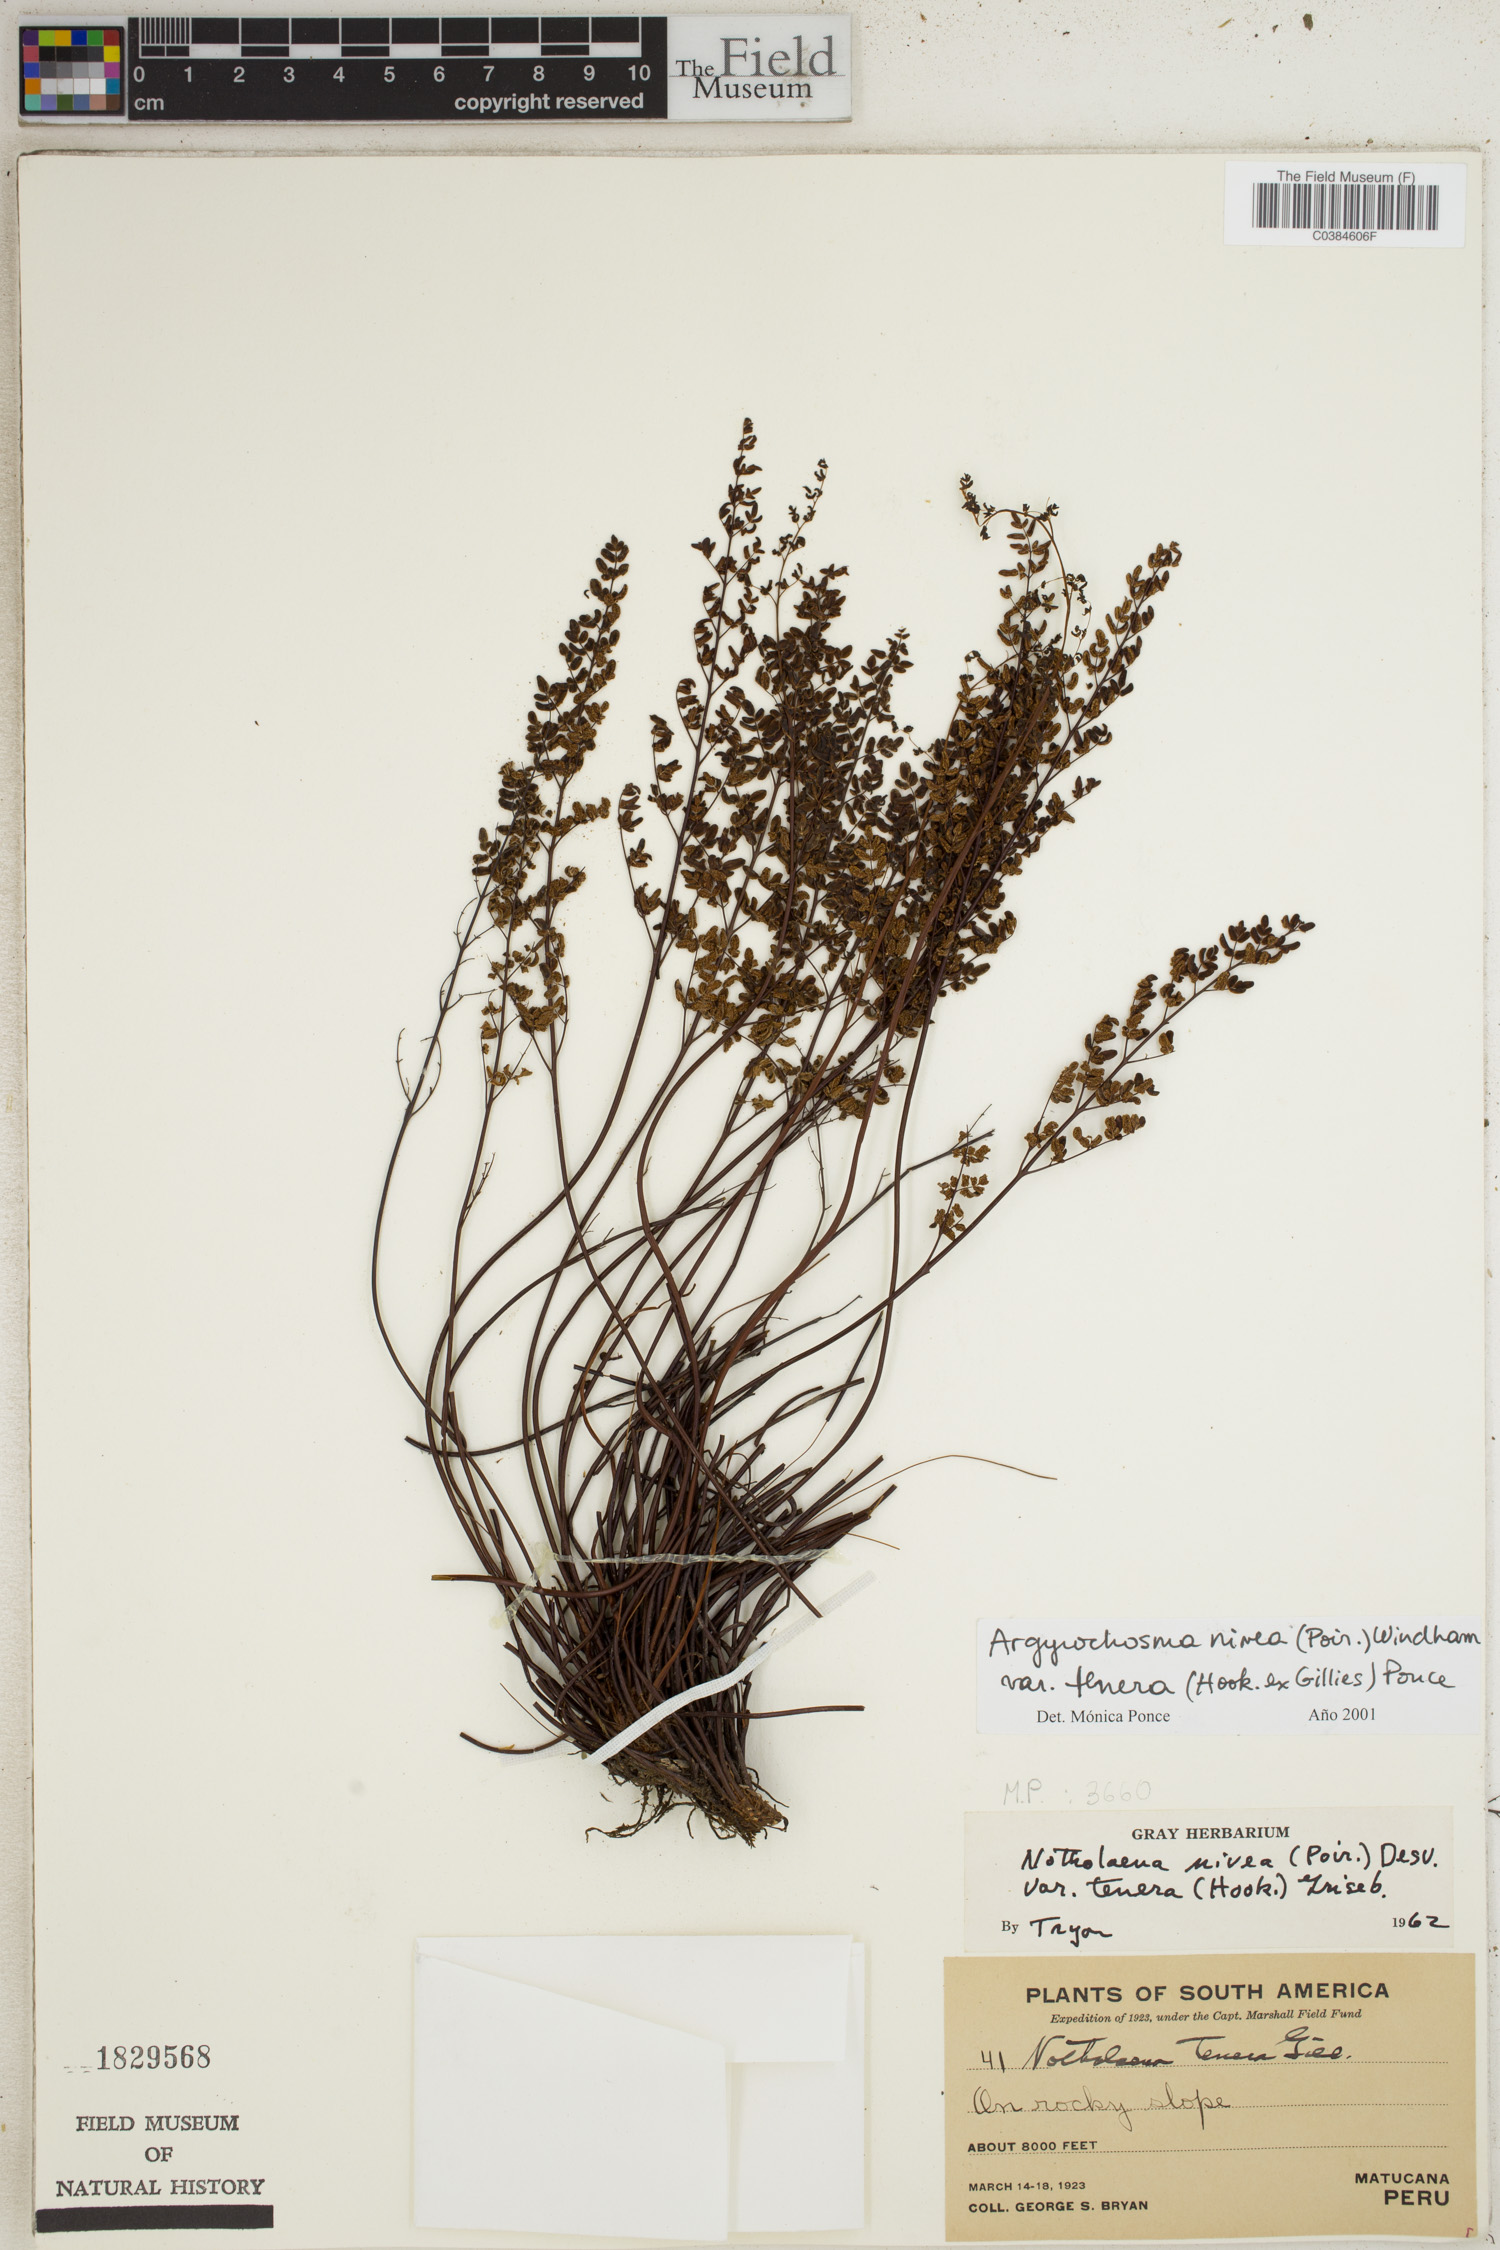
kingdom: Plantae
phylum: Tracheophyta
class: Polypodiopsida
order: Polypodiales
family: Pteridaceae
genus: Argyrochosma
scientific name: Argyrochosma nivea
